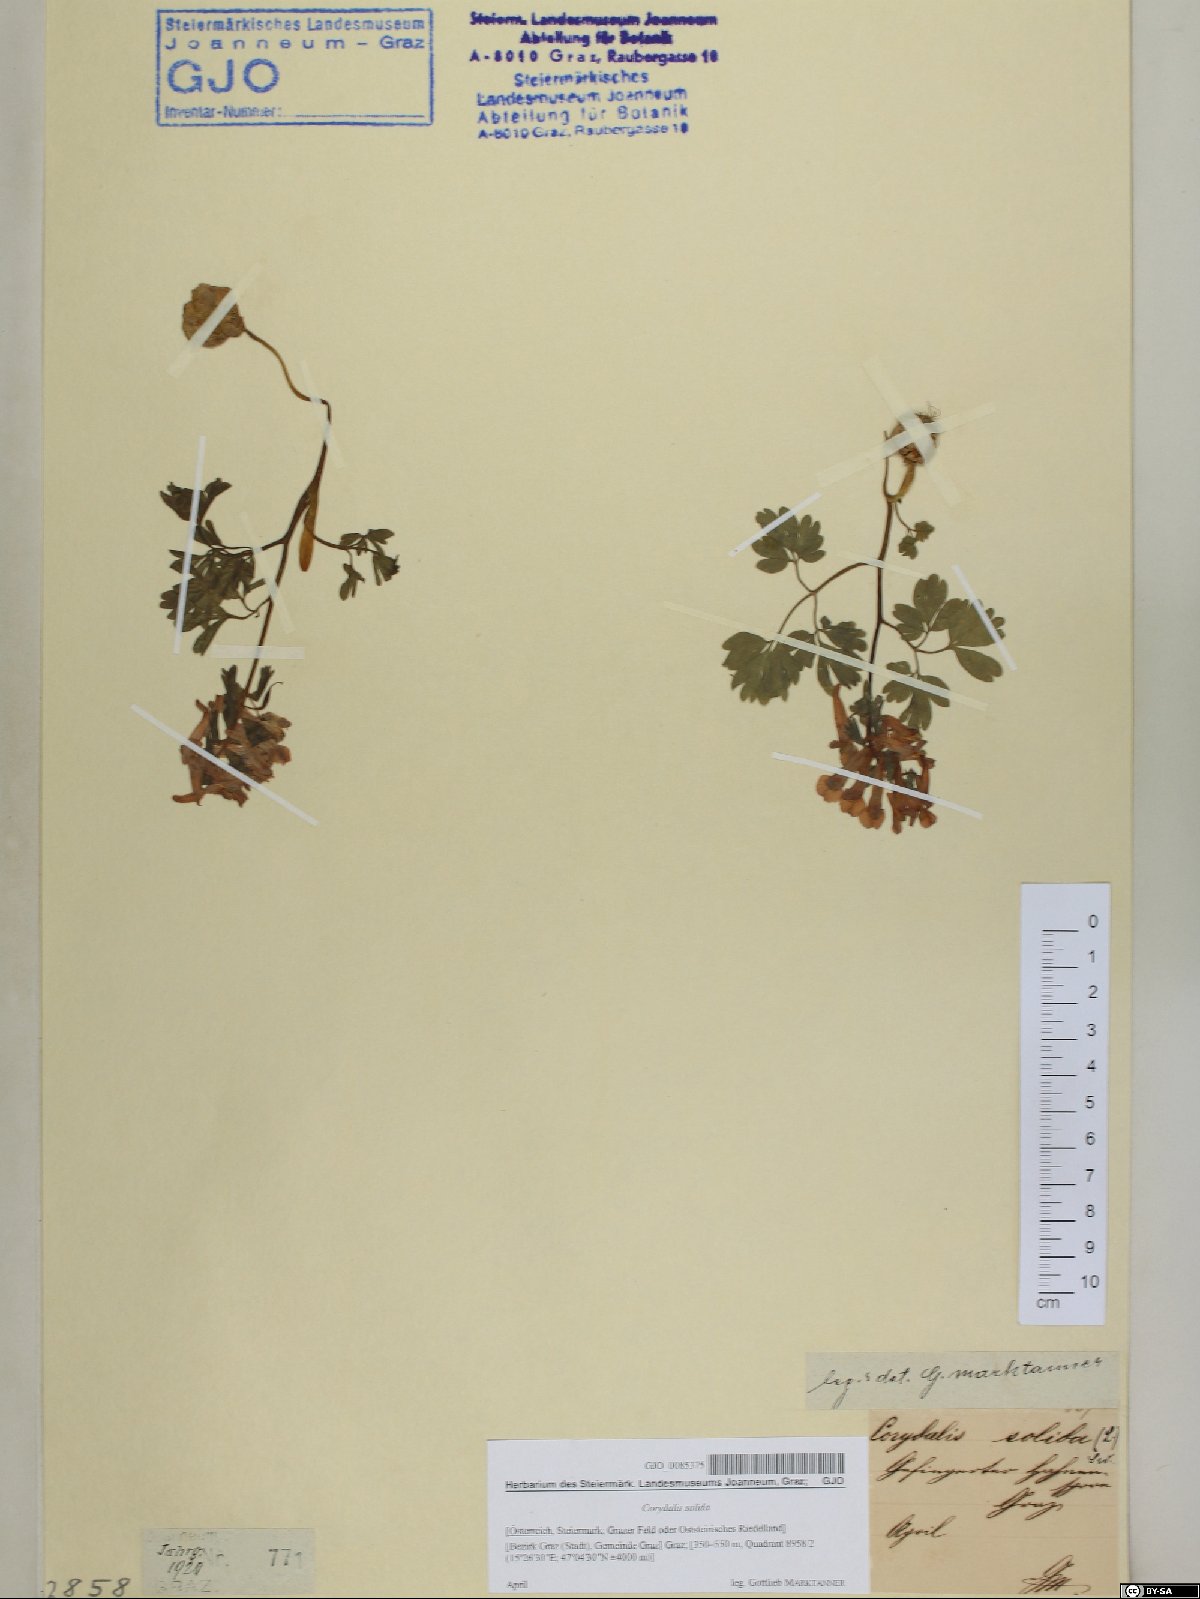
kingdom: Plantae
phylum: Tracheophyta
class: Magnoliopsida
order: Ranunculales
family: Papaveraceae
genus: Corydalis
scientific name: Corydalis solida
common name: Bird-in-a-bush
